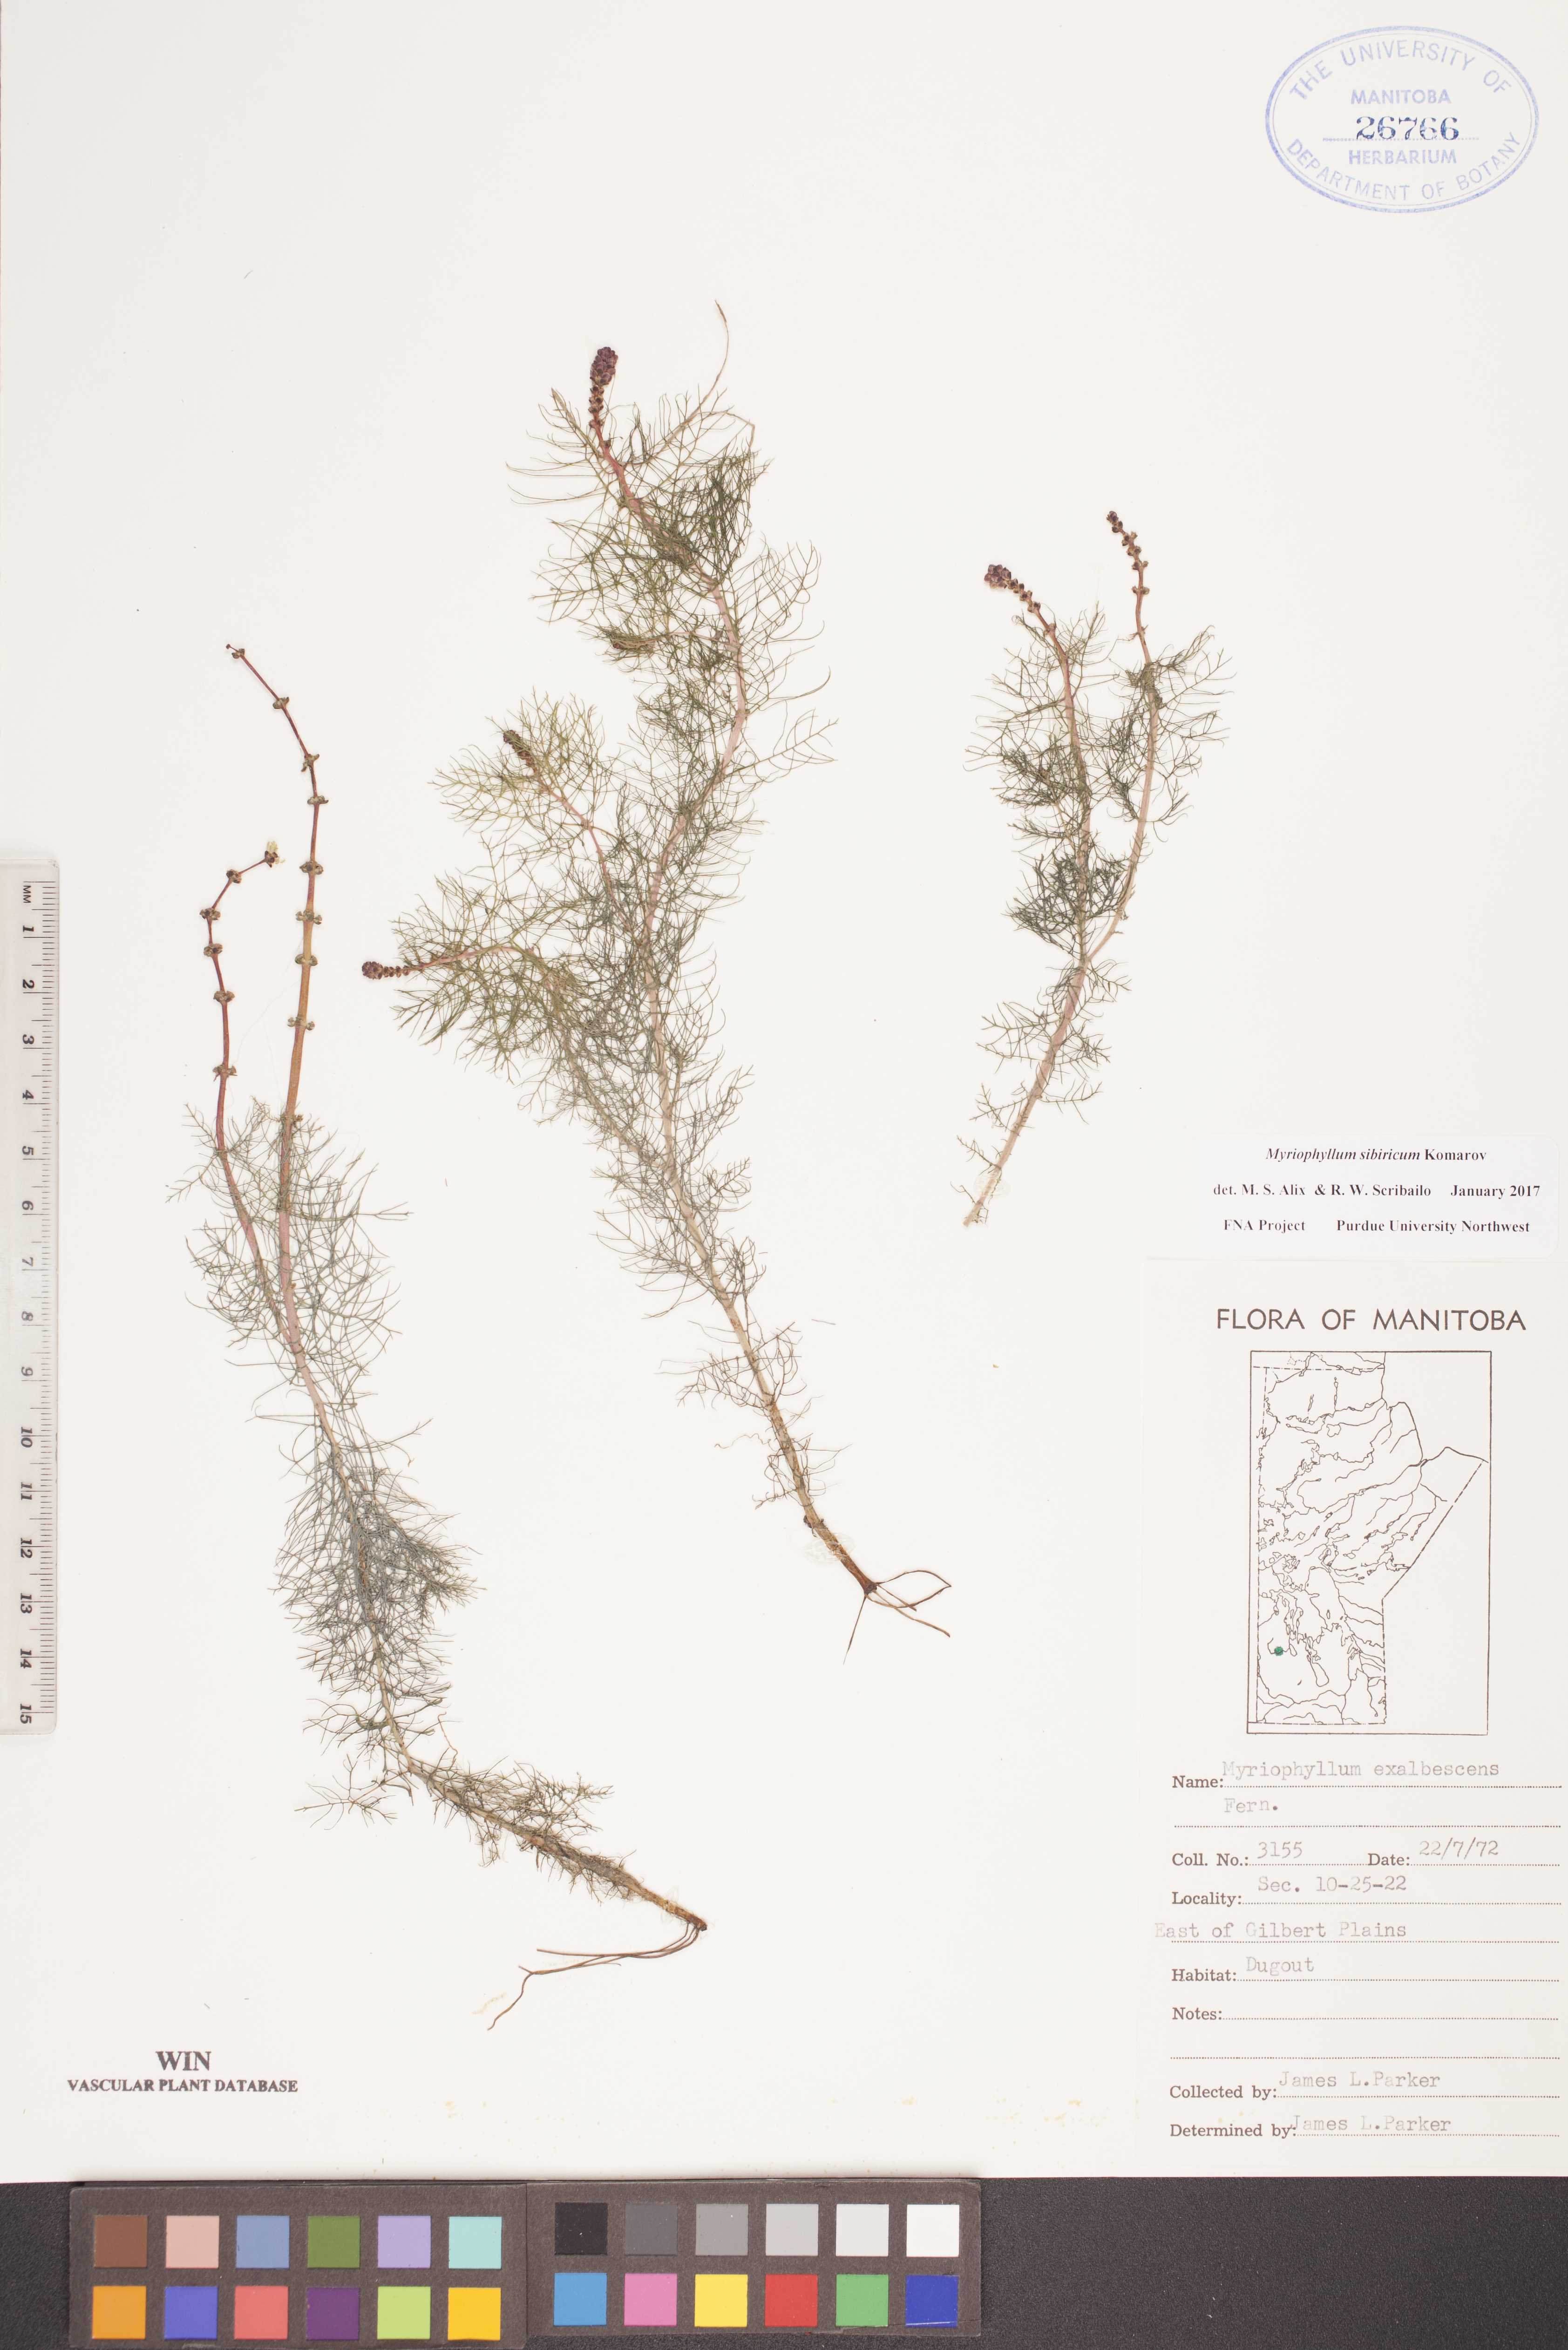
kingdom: Plantae
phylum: Tracheophyta
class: Magnoliopsida
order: Saxifragales
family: Haloragaceae
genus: Myriophyllum
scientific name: Myriophyllum sibiricum
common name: Siberian water-milfoil
